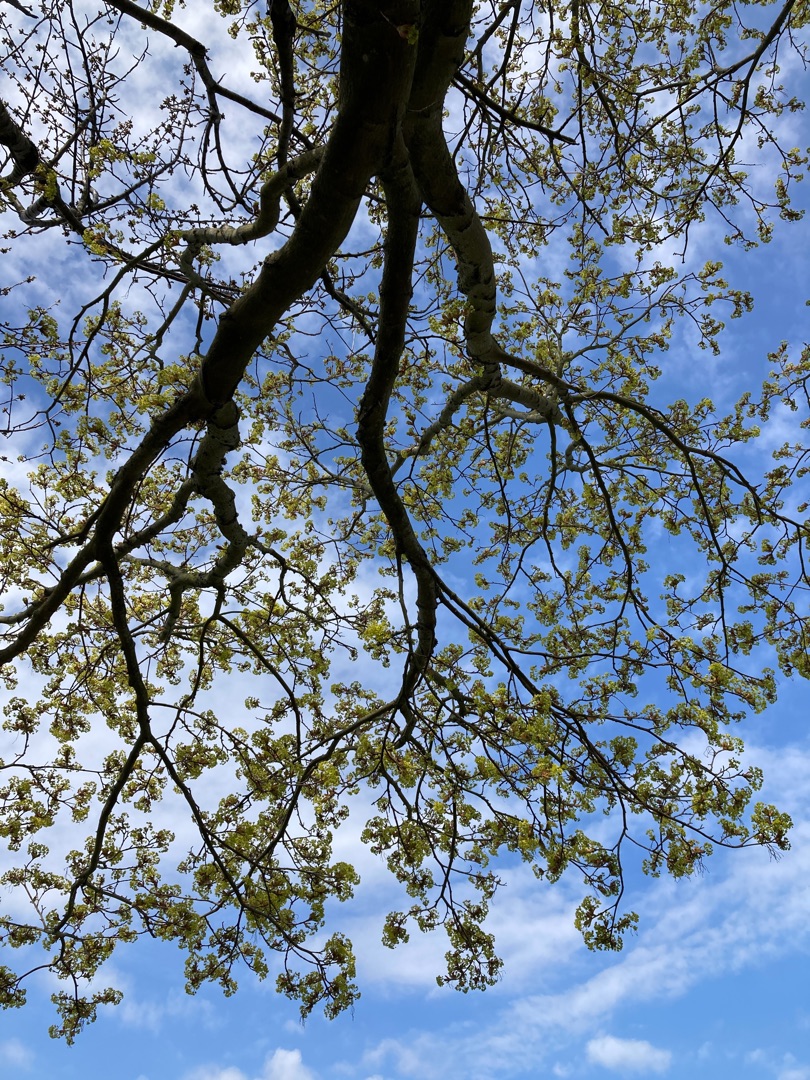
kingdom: Plantae
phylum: Tracheophyta
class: Magnoliopsida
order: Sapindales
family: Sapindaceae
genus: Acer
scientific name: Acer platanoides
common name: Spids-løn
